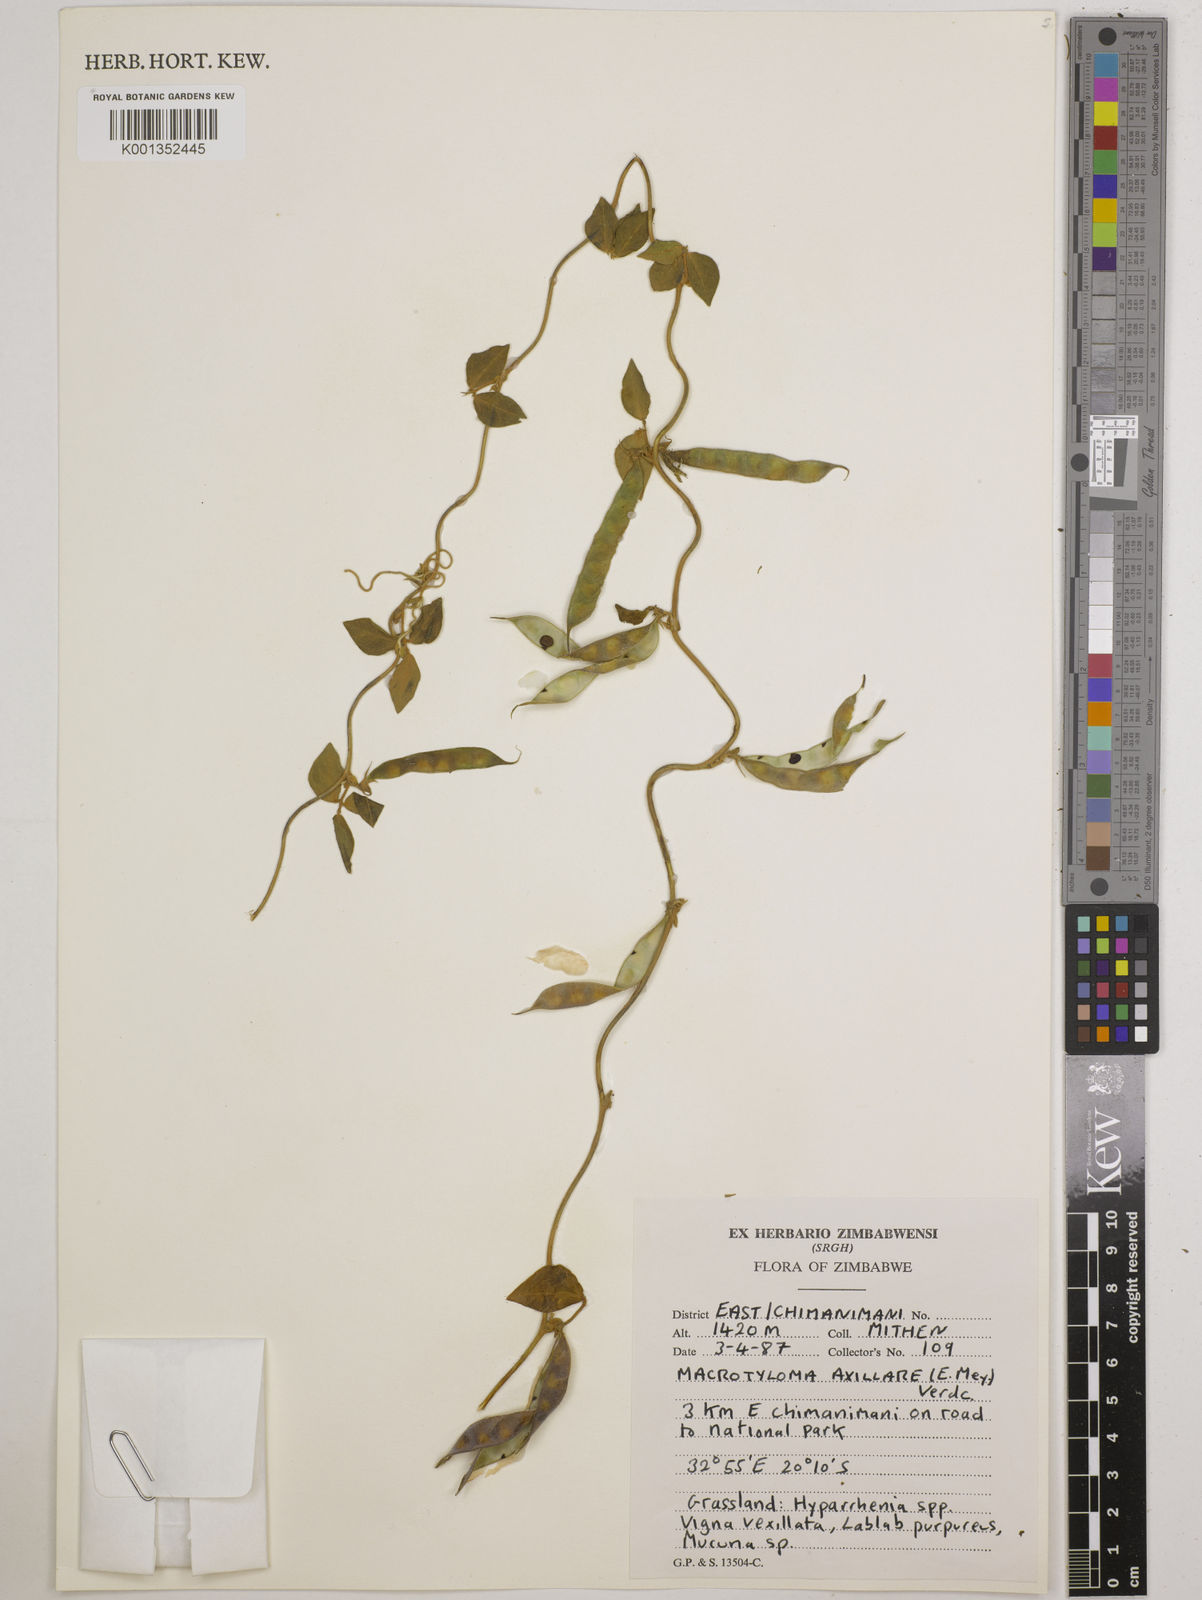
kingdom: Plantae
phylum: Tracheophyta
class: Magnoliopsida
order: Fabales
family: Fabaceae
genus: Macrotyloma
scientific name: Macrotyloma axillare
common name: Perennial horsegram
